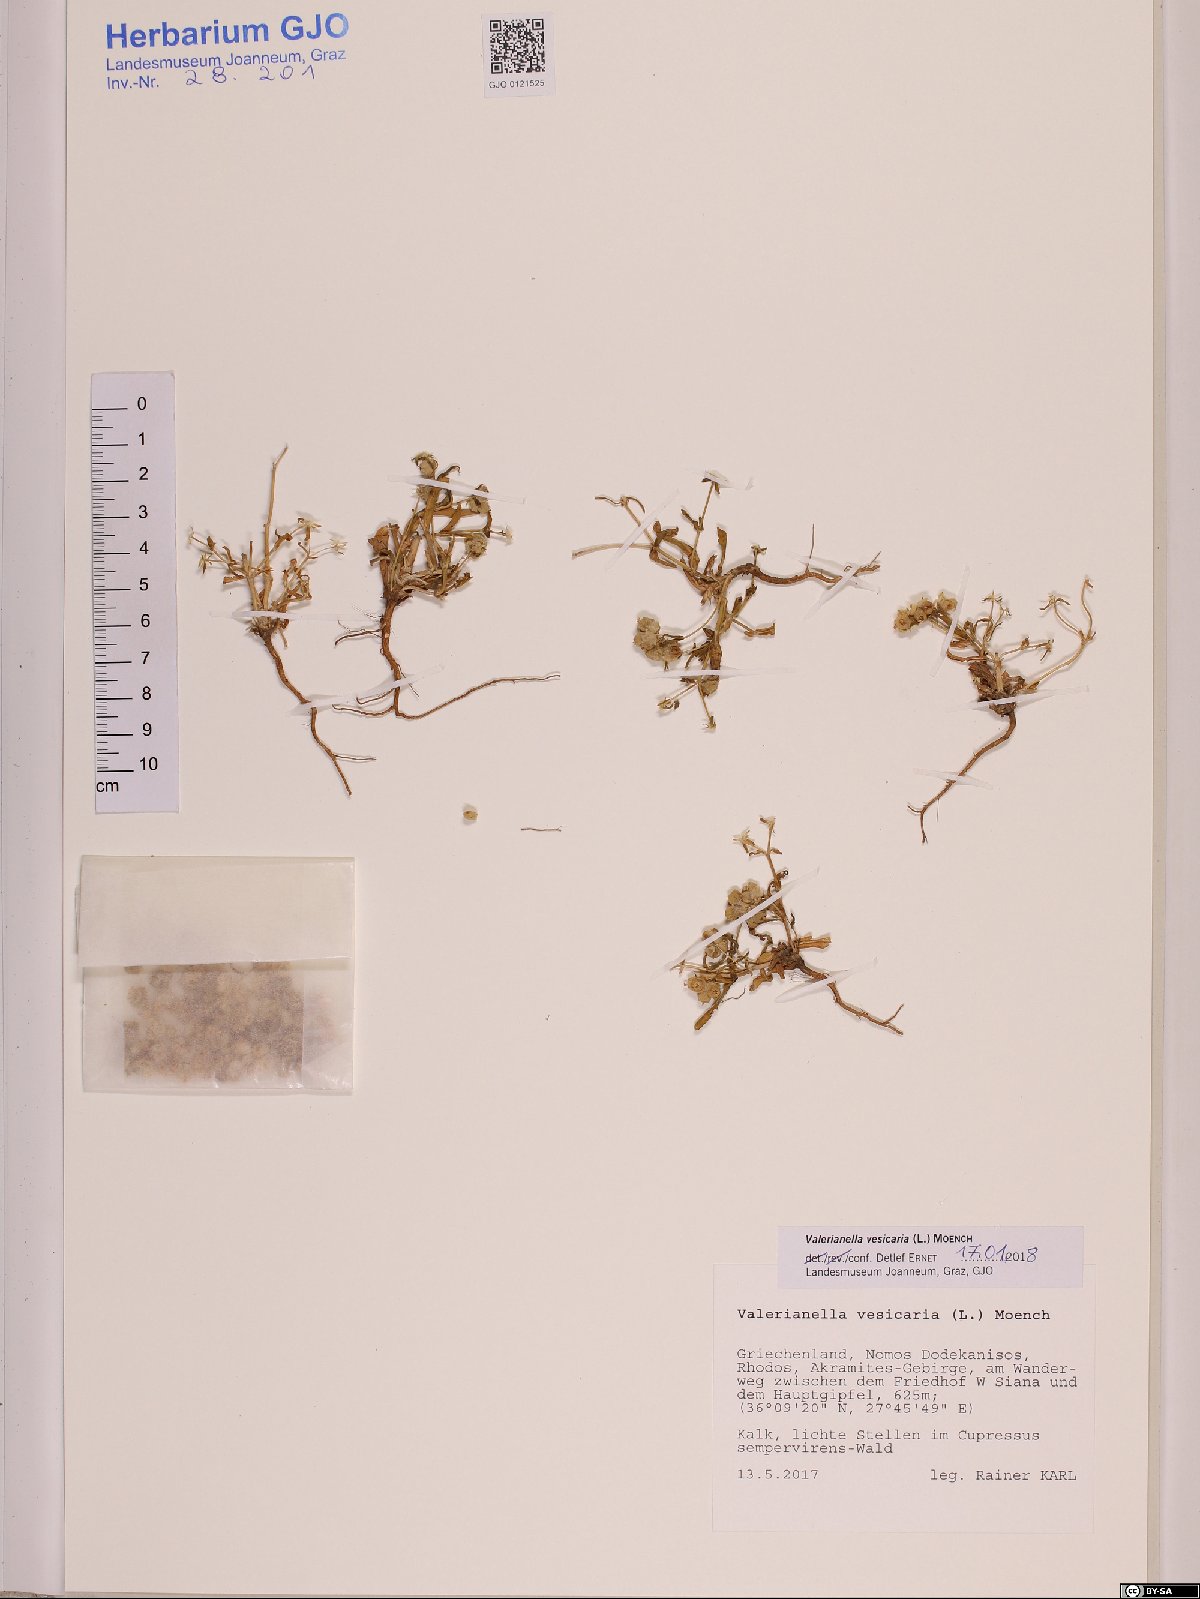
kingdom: Plantae
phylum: Tracheophyta
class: Magnoliopsida
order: Dipsacales
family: Caprifoliaceae
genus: Valerianella
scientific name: Valerianella vesicaria
